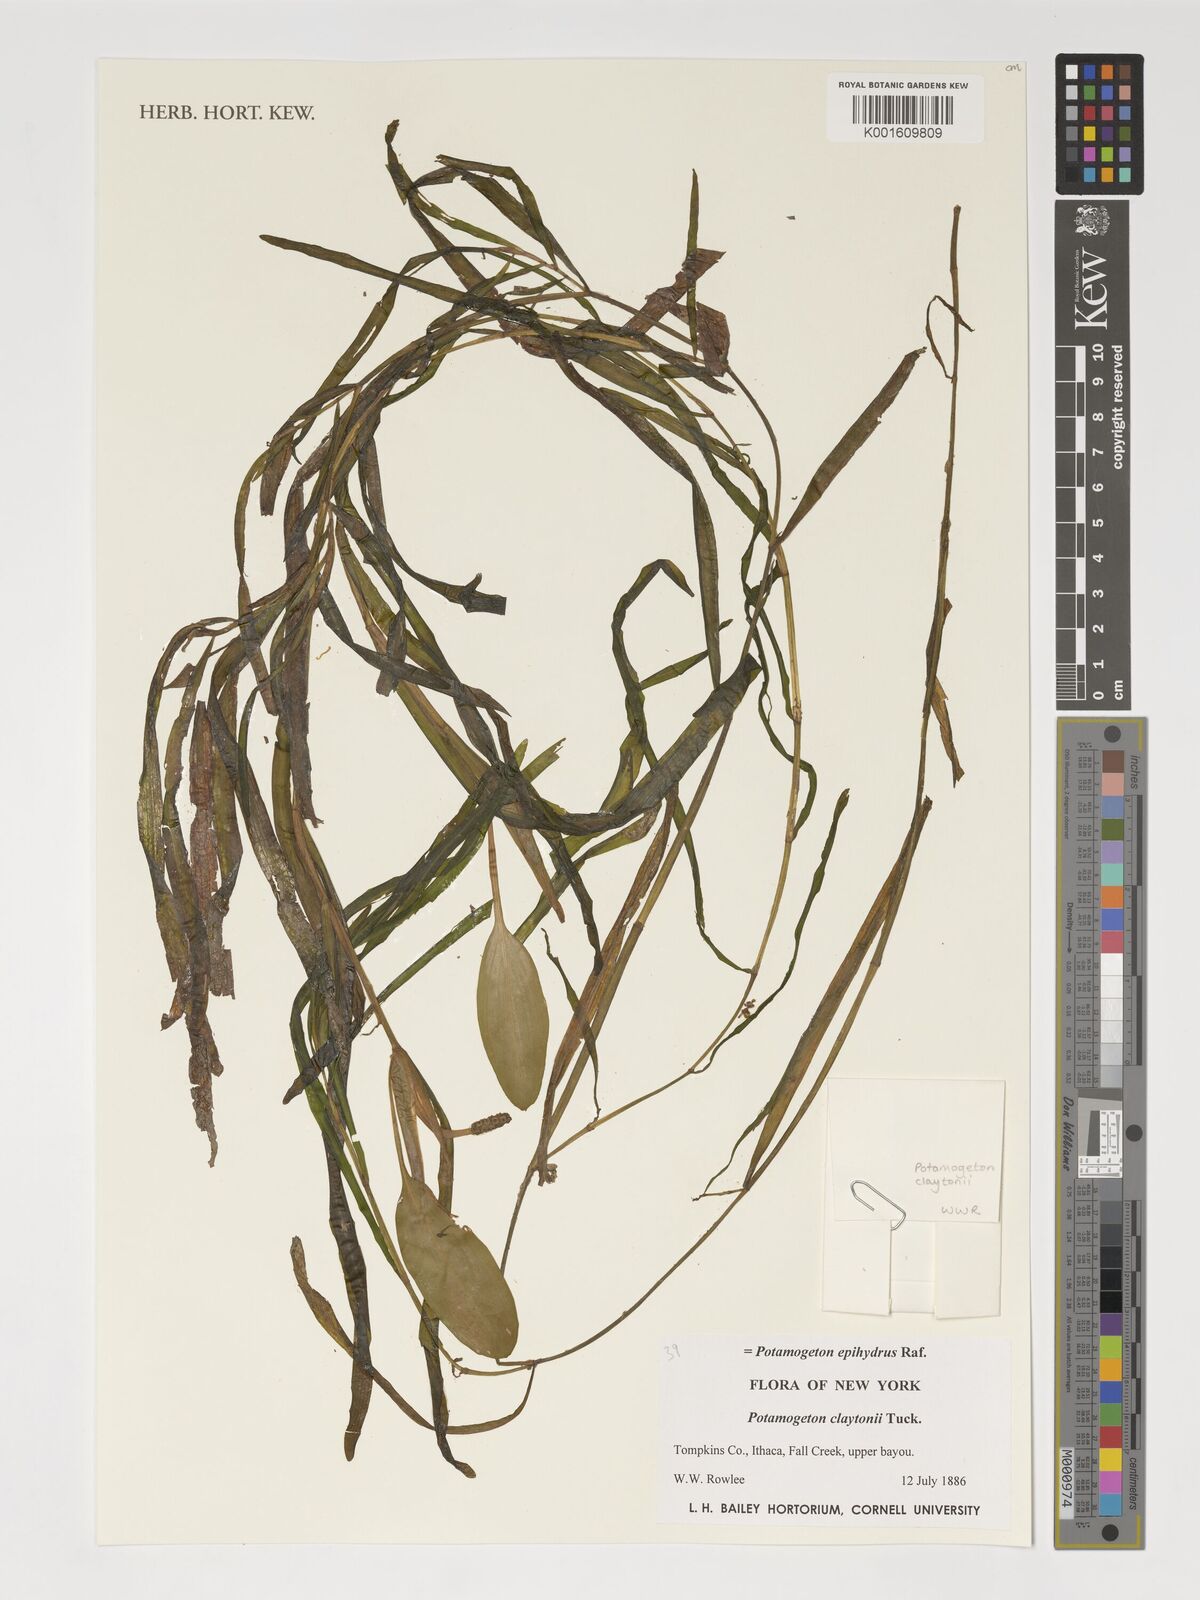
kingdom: Plantae
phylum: Tracheophyta
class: Liliopsida
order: Alismatales
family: Potamogetonaceae
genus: Potamogeton
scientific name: Potamogeton epihydrus
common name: American pondweed
